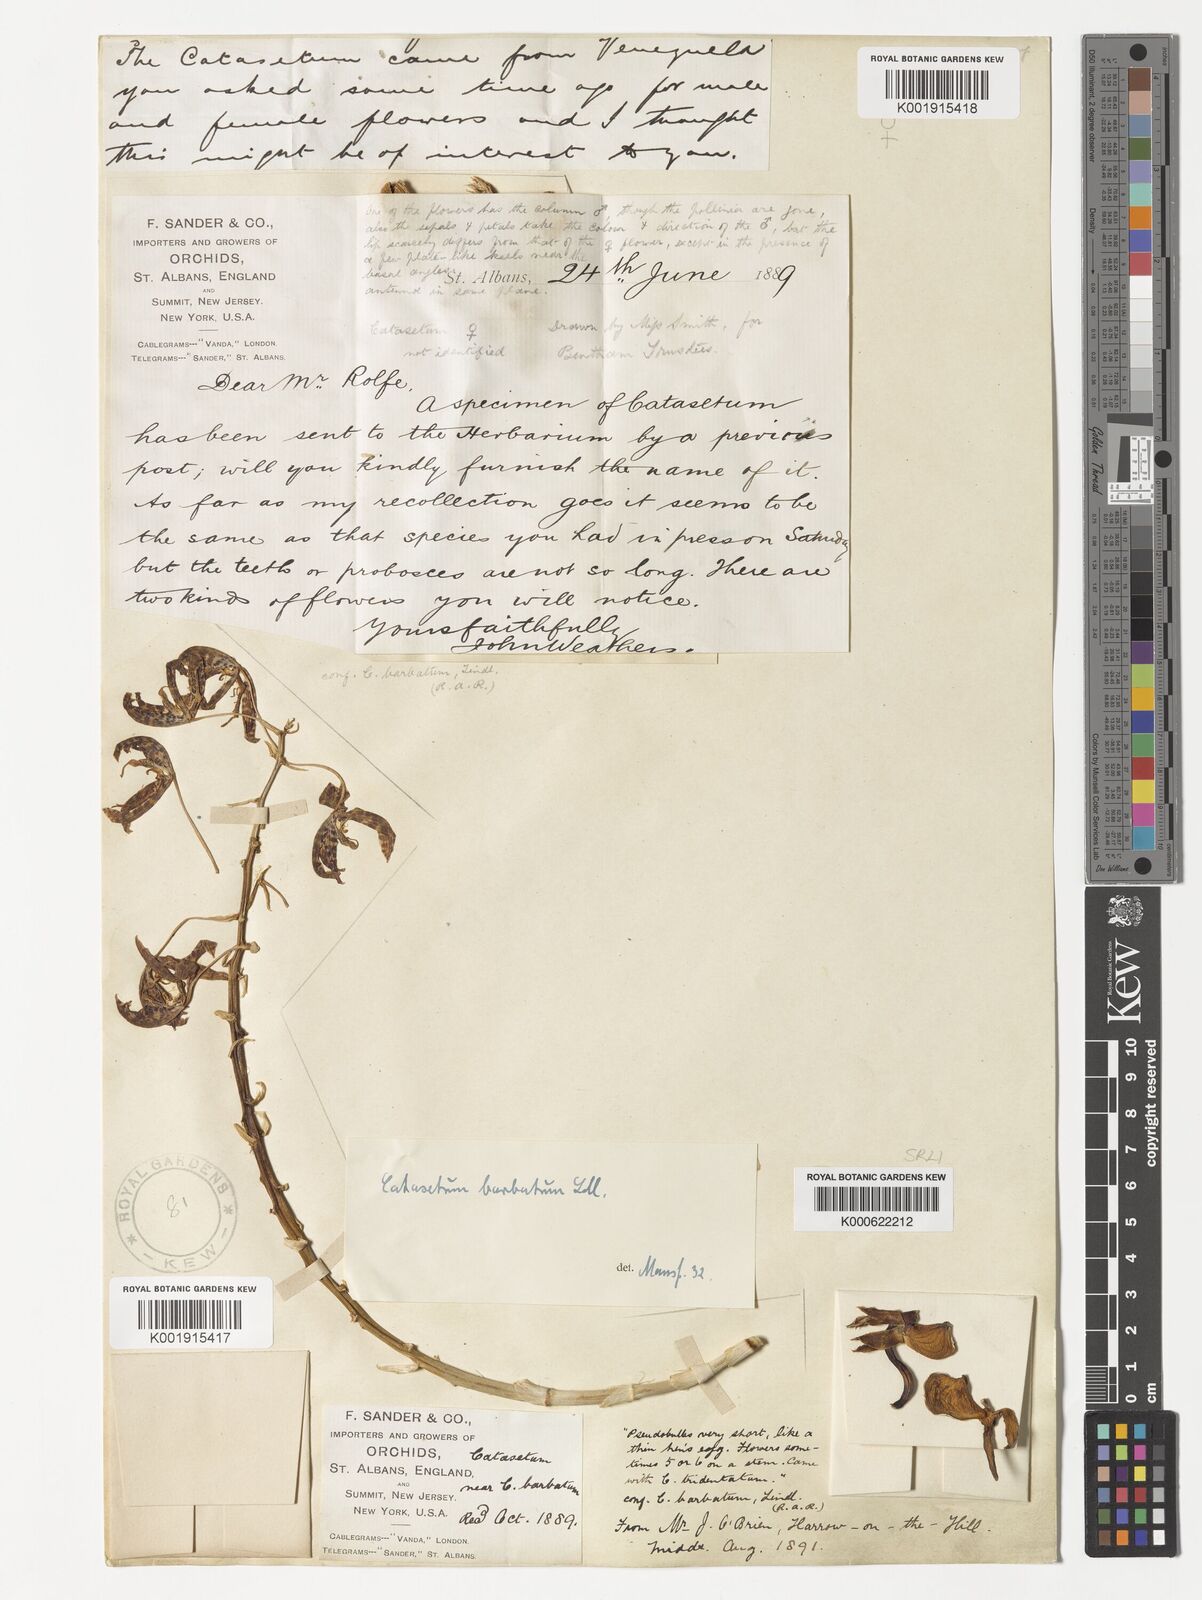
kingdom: Plantae
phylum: Tracheophyta
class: Liliopsida
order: Asparagales
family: Orchidaceae
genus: Catasetum
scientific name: Catasetum barbatum
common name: Bearded catasetum
